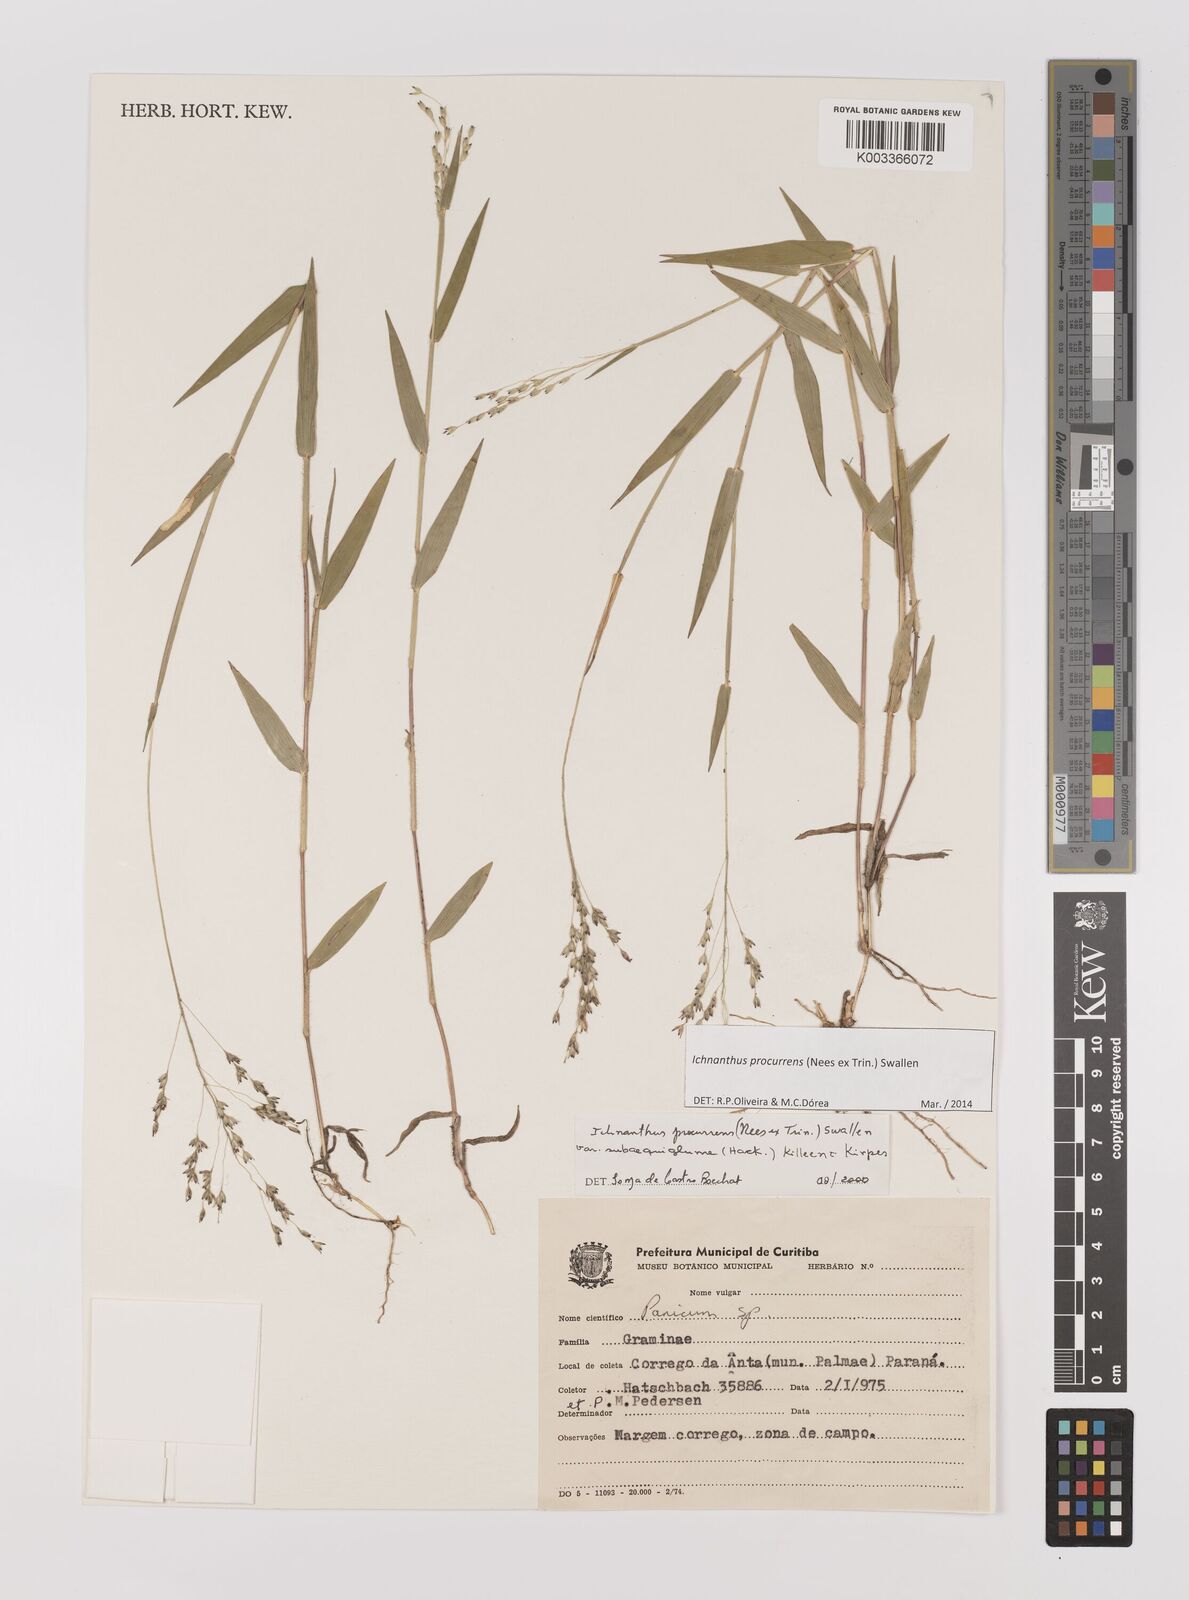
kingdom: Plantae
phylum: Tracheophyta
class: Liliopsida
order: Poales
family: Poaceae
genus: Oedochloa
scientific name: Oedochloa procurrens
